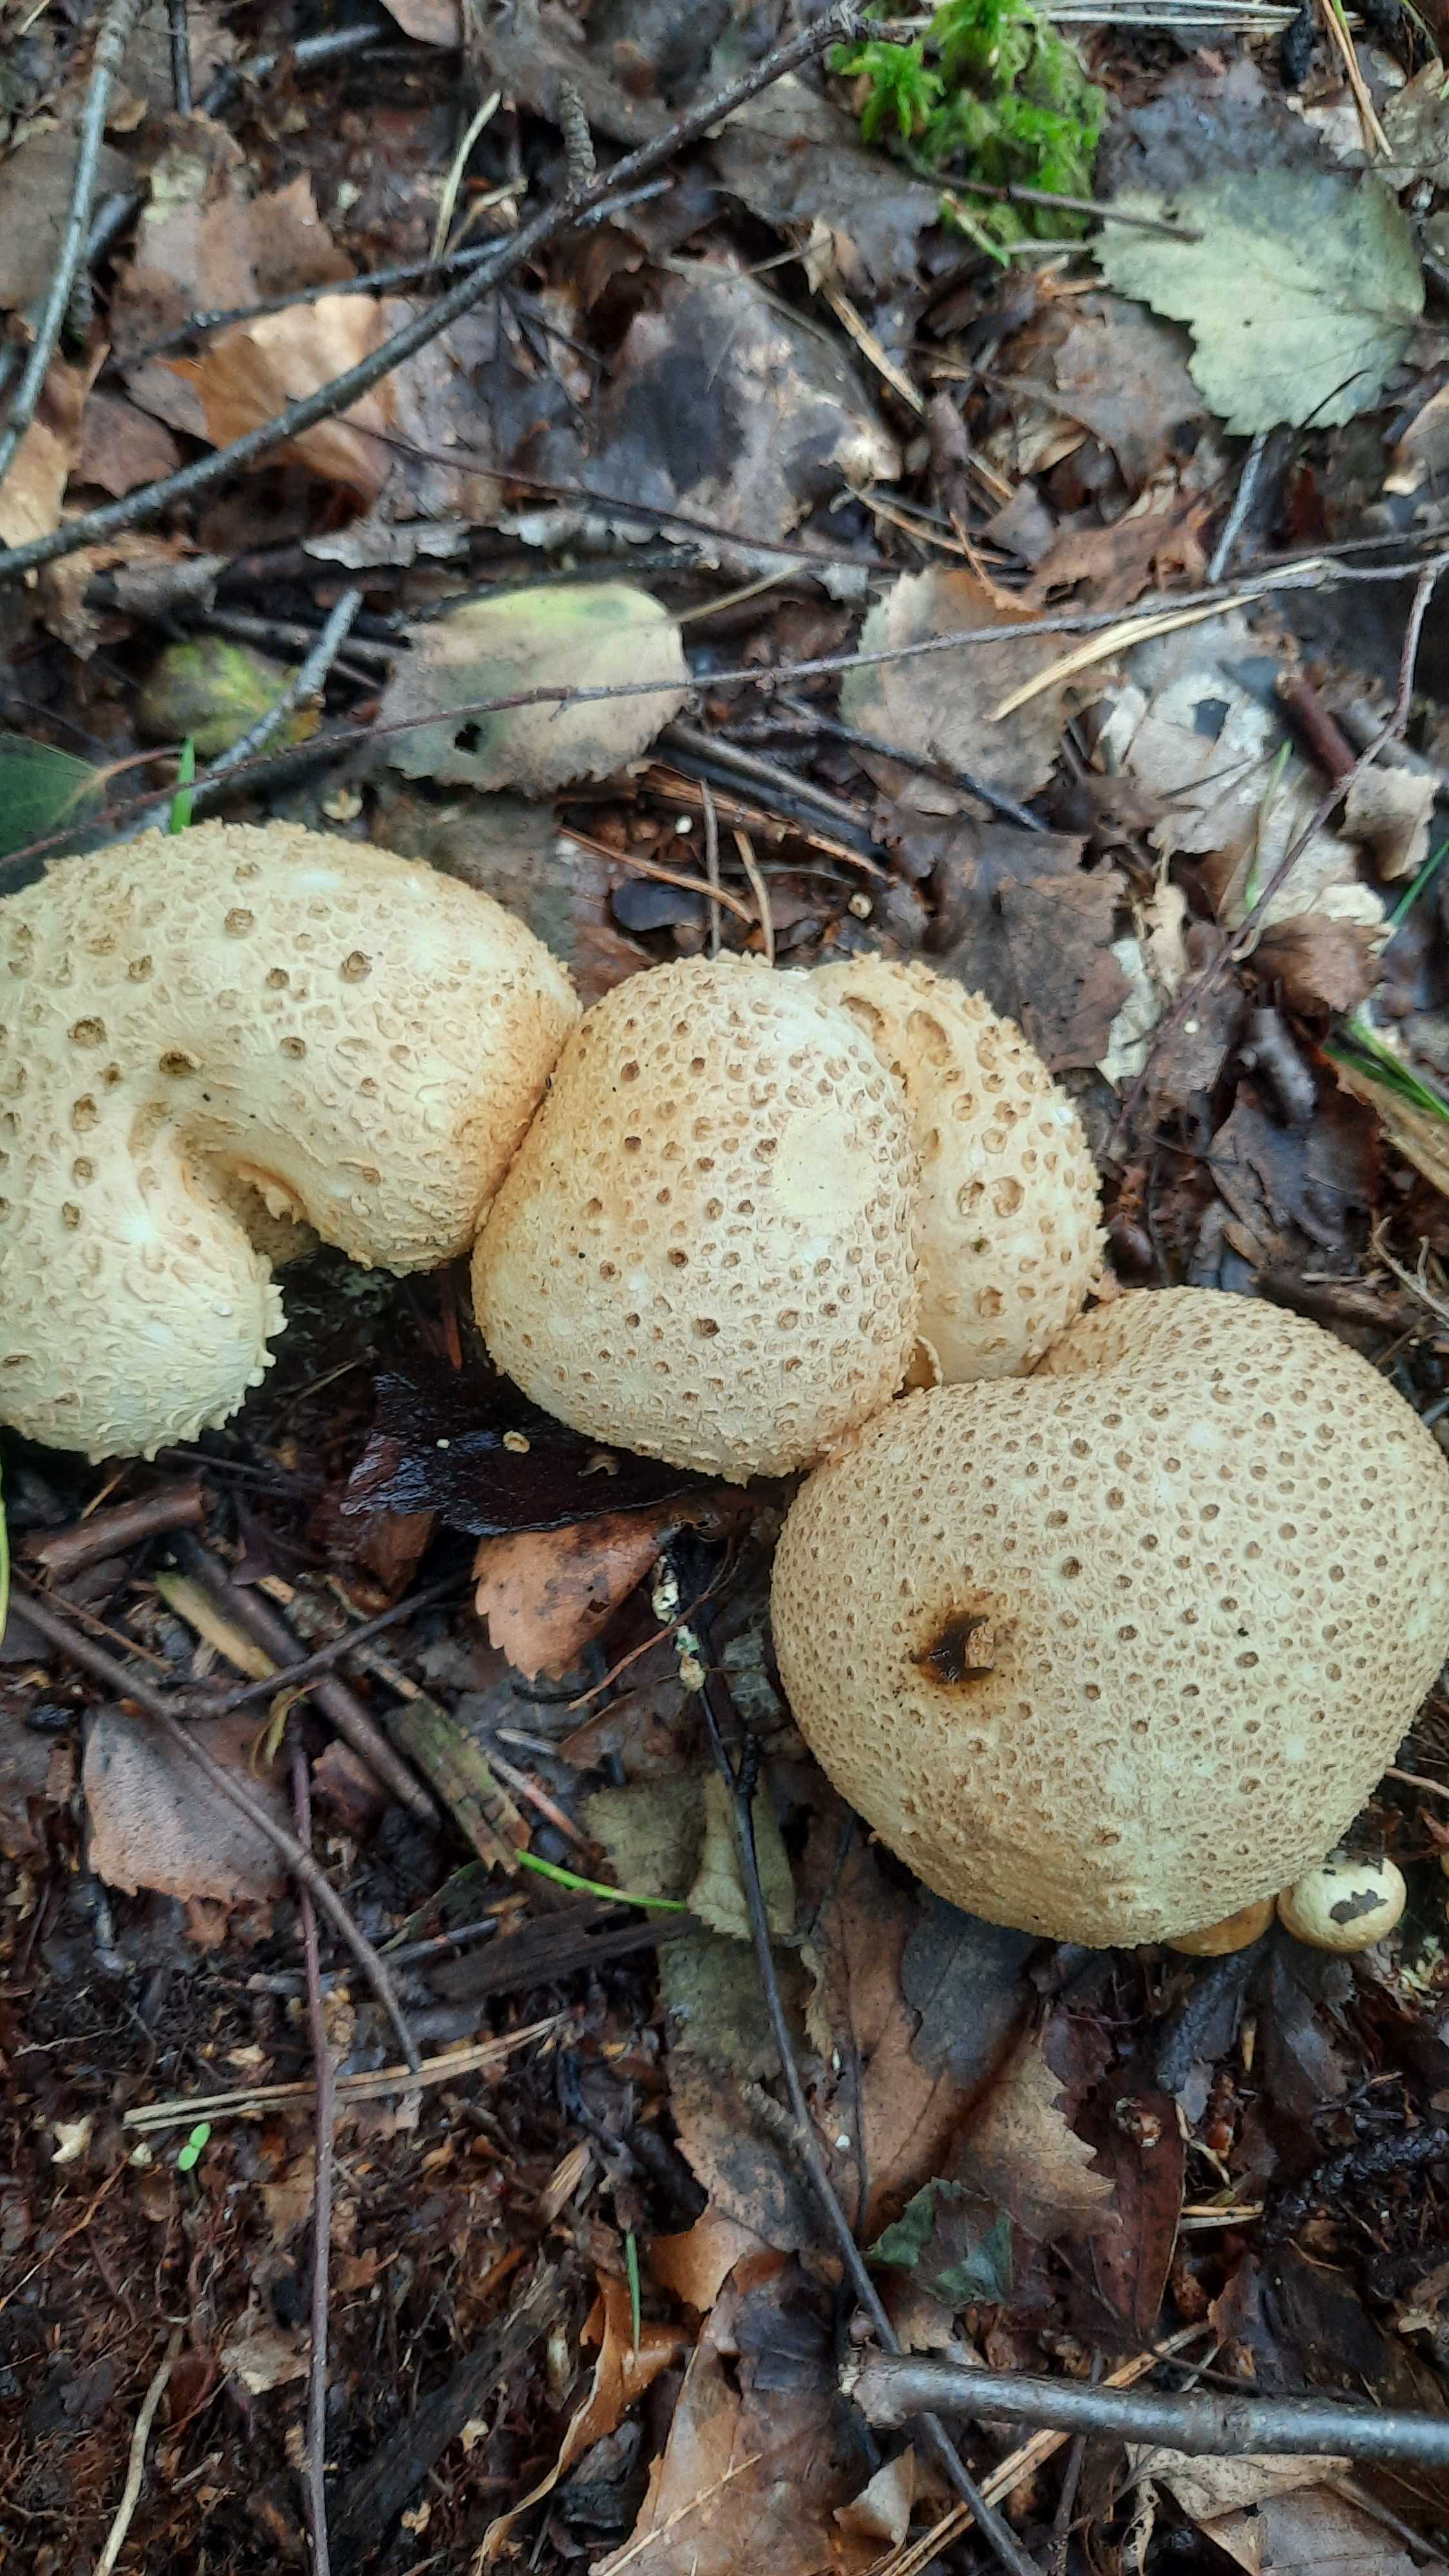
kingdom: Fungi
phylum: Basidiomycota
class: Agaricomycetes
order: Boletales
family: Sclerodermataceae
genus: Scleroderma
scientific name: Scleroderma citrinum
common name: almindelig bruskbold
